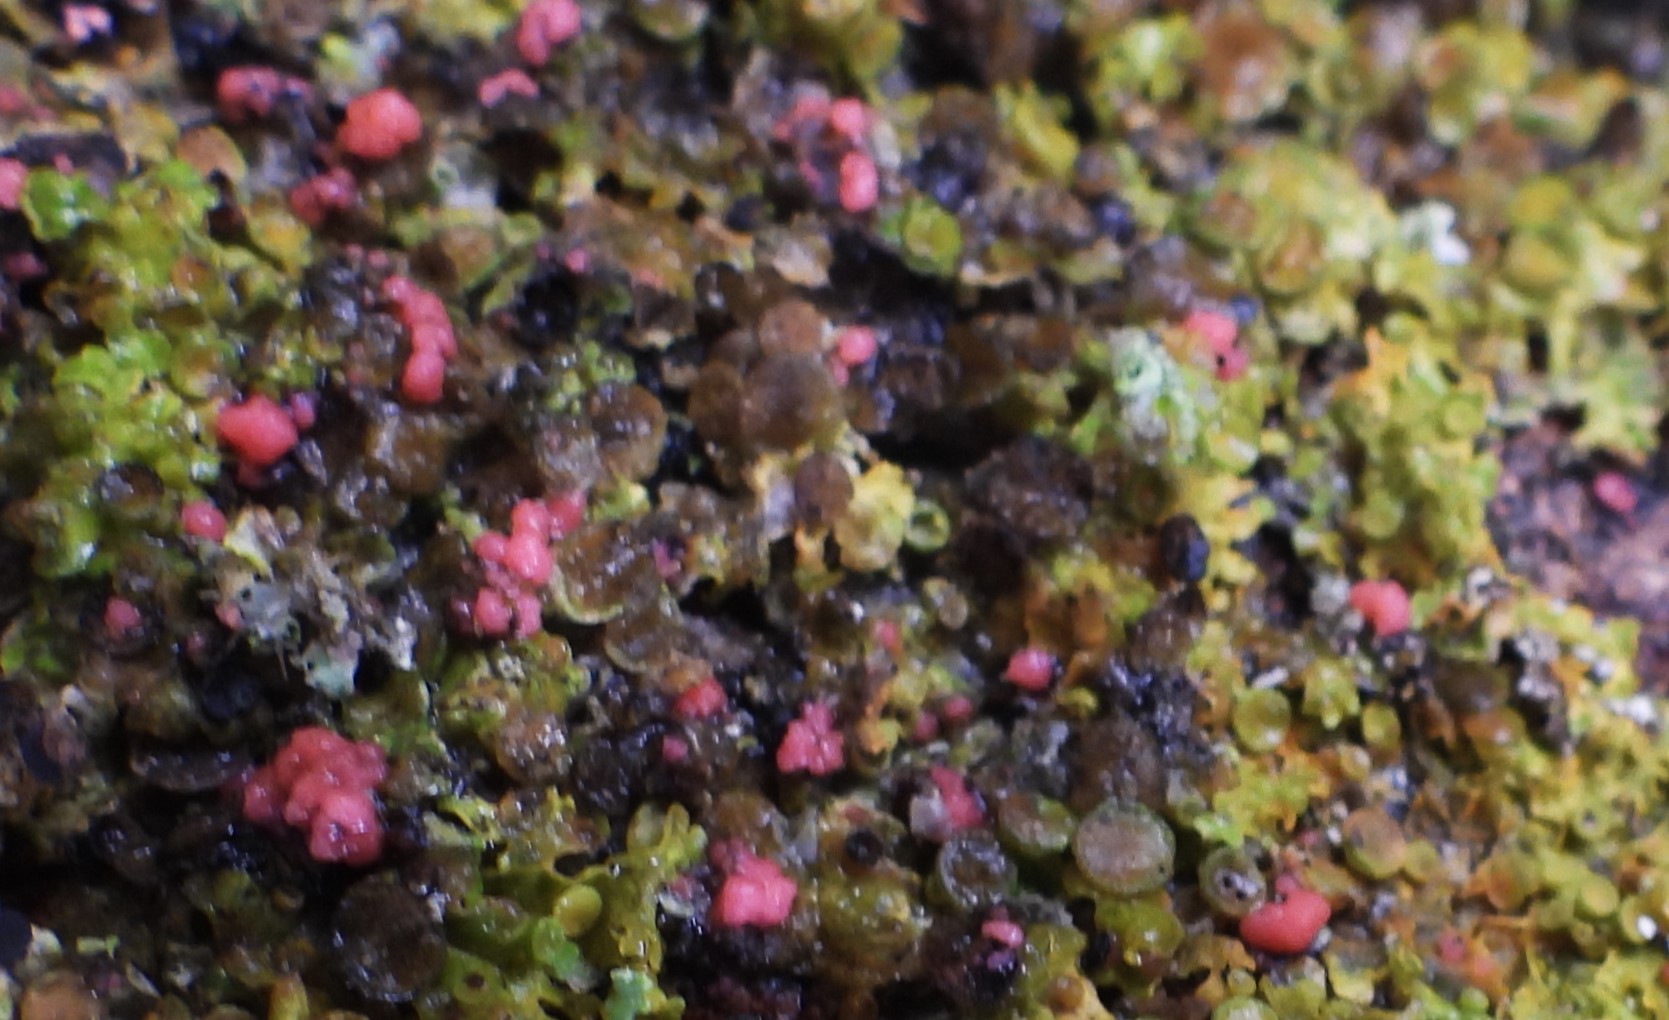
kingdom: Fungi
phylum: Ascomycota
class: Sordariomycetes
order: Hypocreales
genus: Illosporiopsis
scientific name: Illosporiopsis christiansenii
